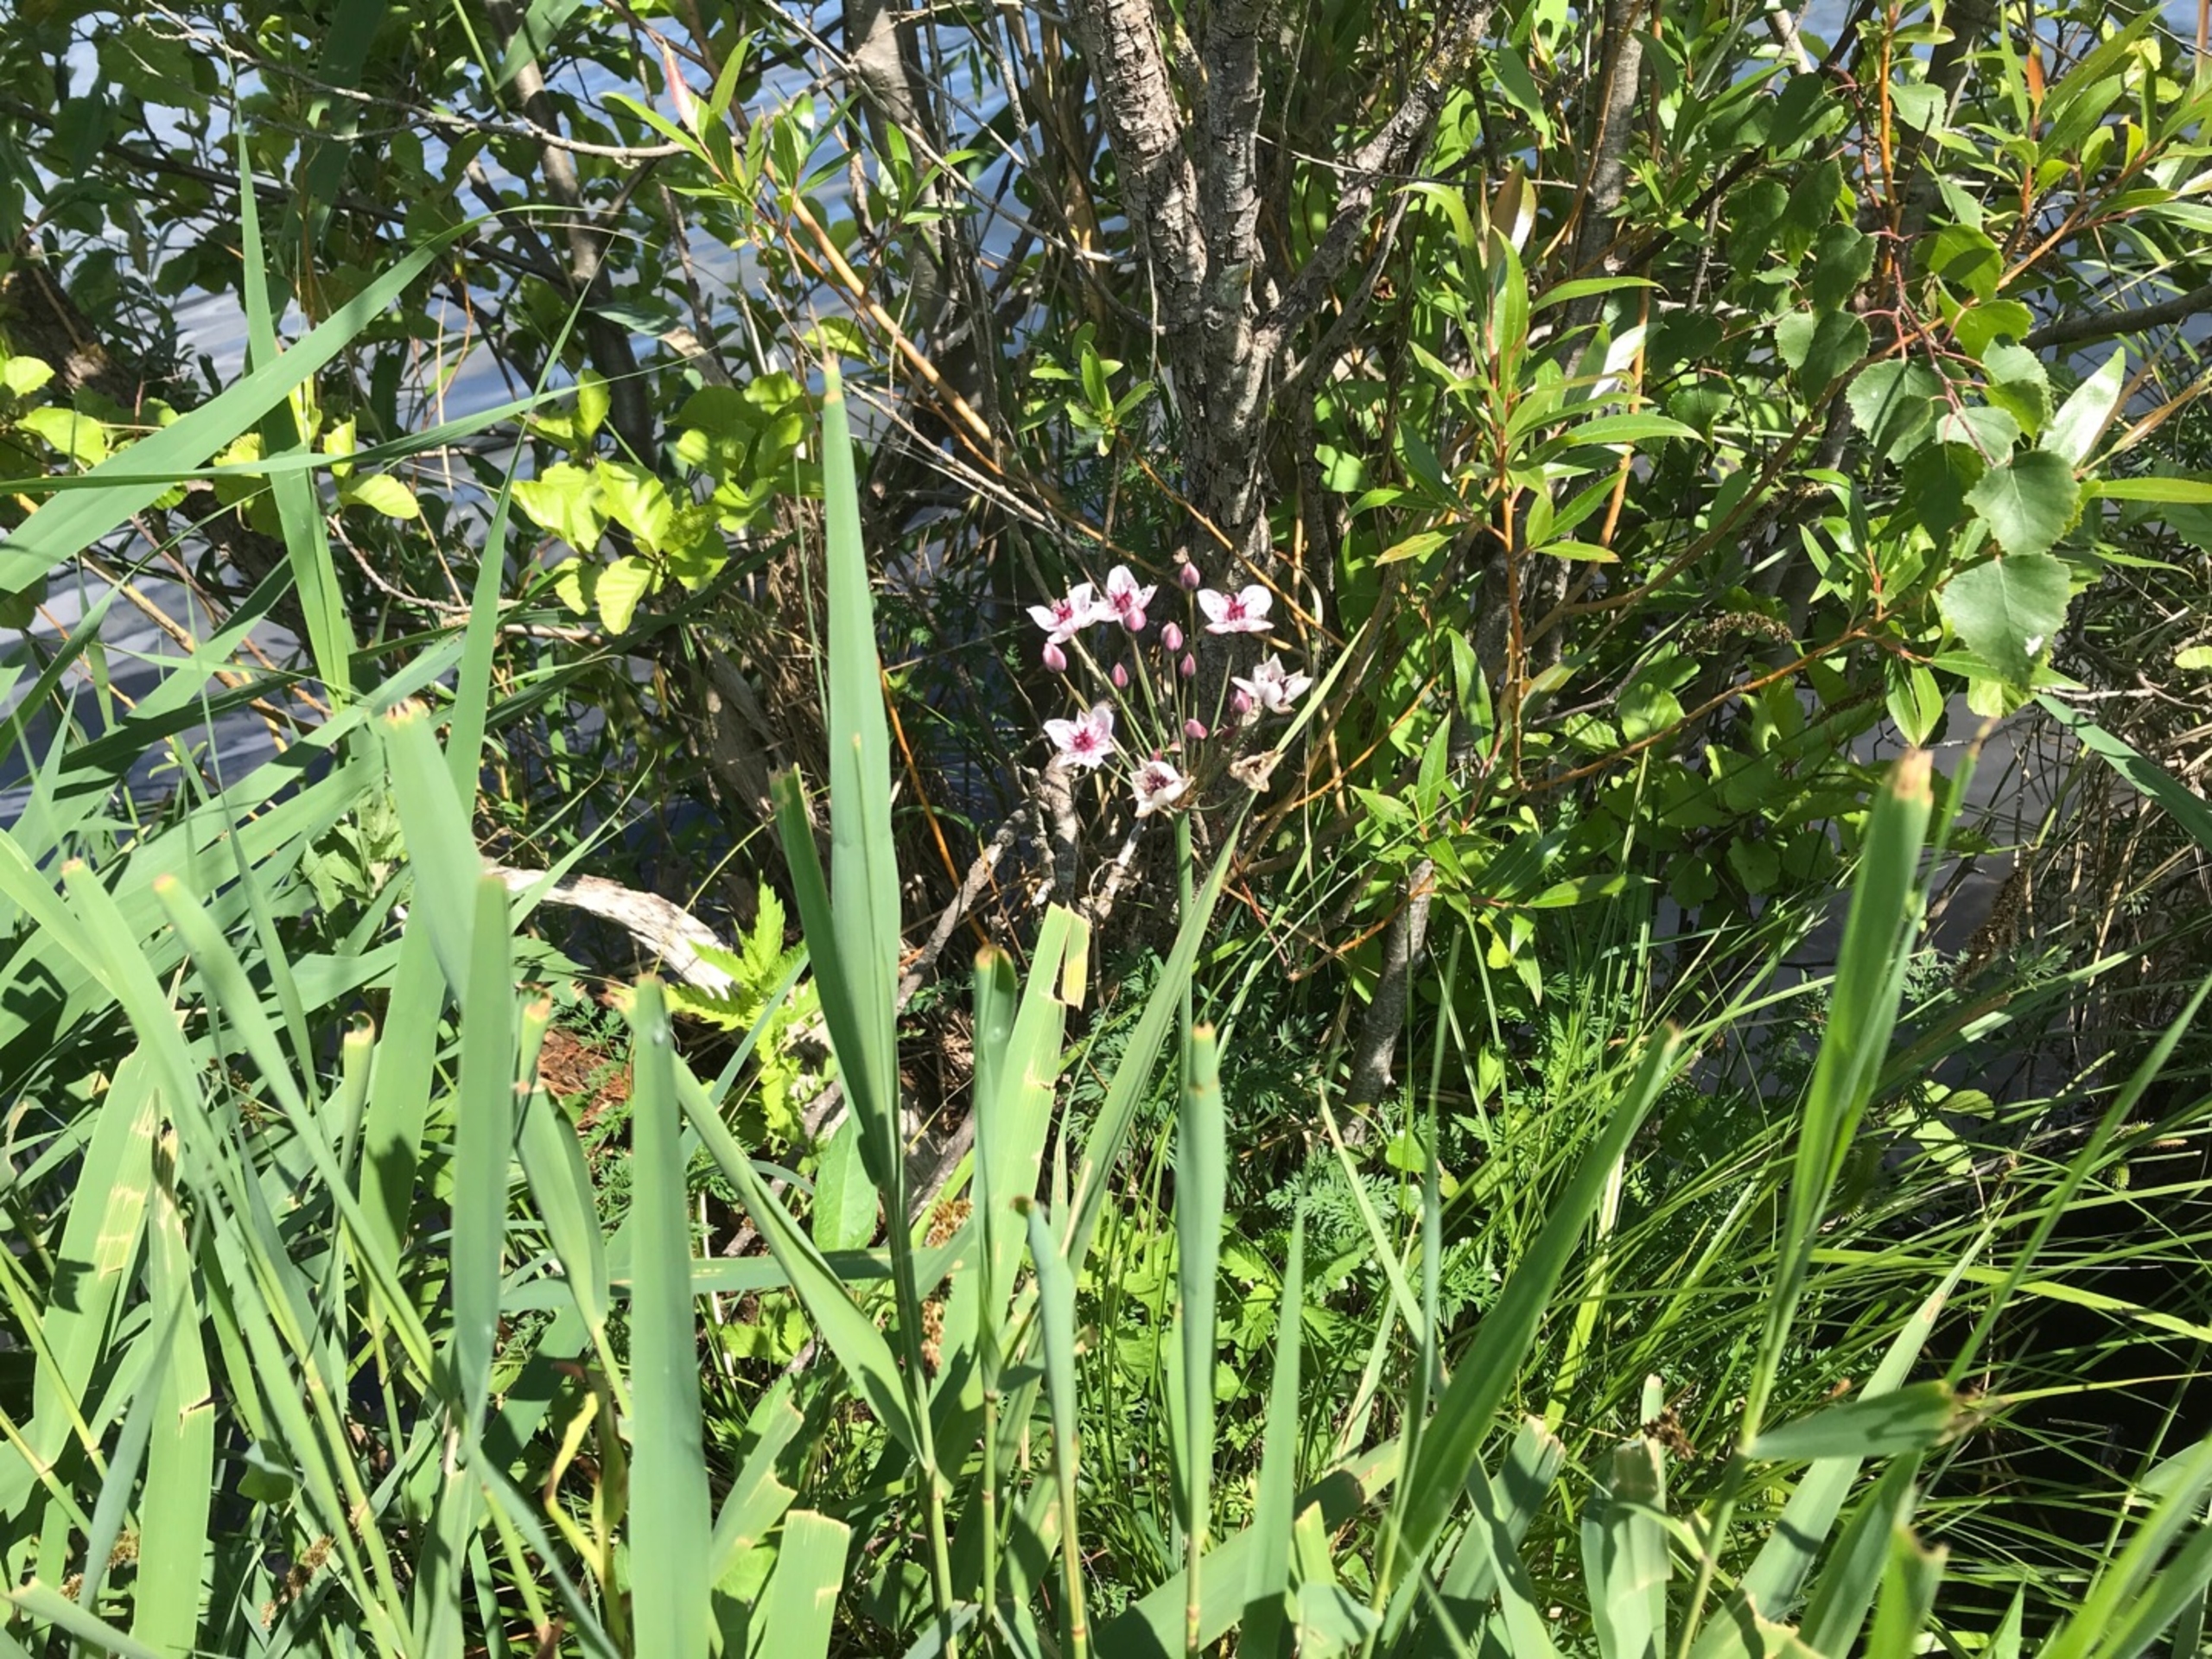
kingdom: Plantae
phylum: Tracheophyta
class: Liliopsida
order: Alismatales
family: Butomaceae
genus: Butomus
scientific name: Butomus umbellatus
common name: Brudelys
